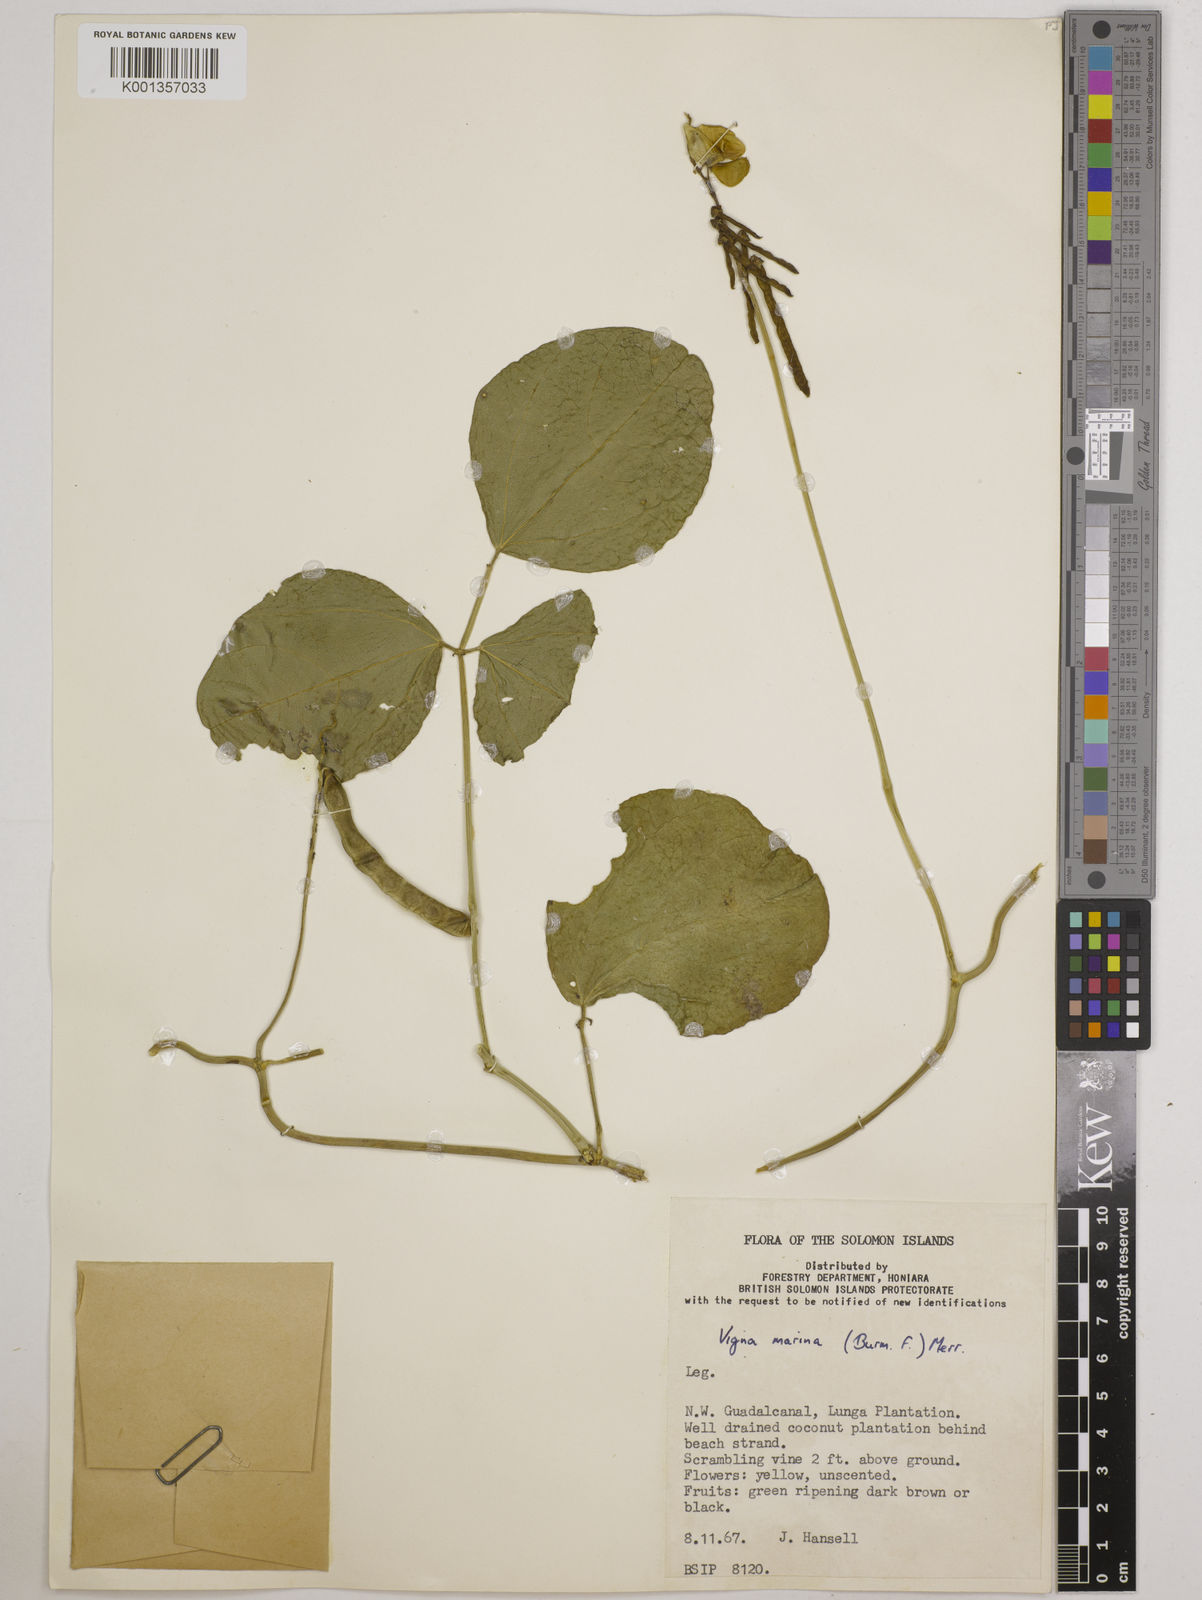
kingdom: Plantae
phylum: Tracheophyta
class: Magnoliopsida
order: Fabales
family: Fabaceae
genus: Vigna
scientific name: Vigna marina
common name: Dune-bean
